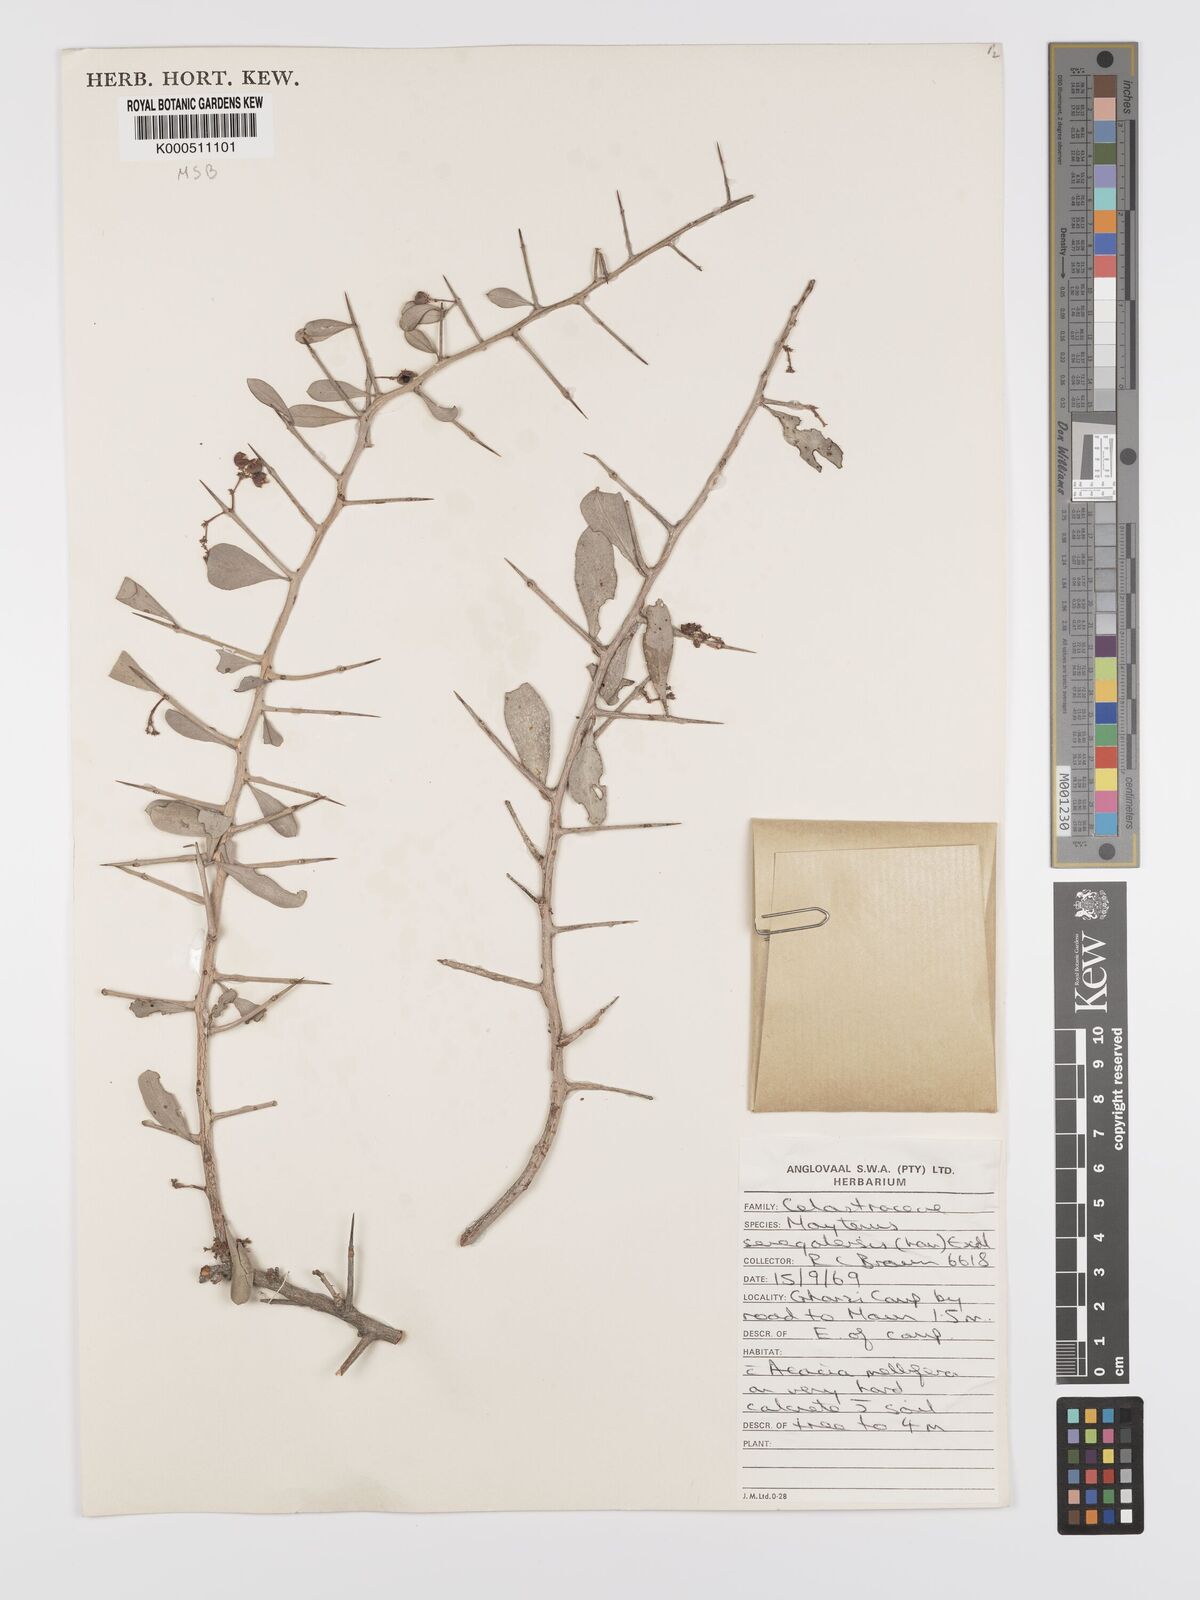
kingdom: Plantae
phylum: Tracheophyta
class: Magnoliopsida
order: Celastrales
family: Celastraceae
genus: Gymnosporia
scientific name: Gymnosporia senegalensis
